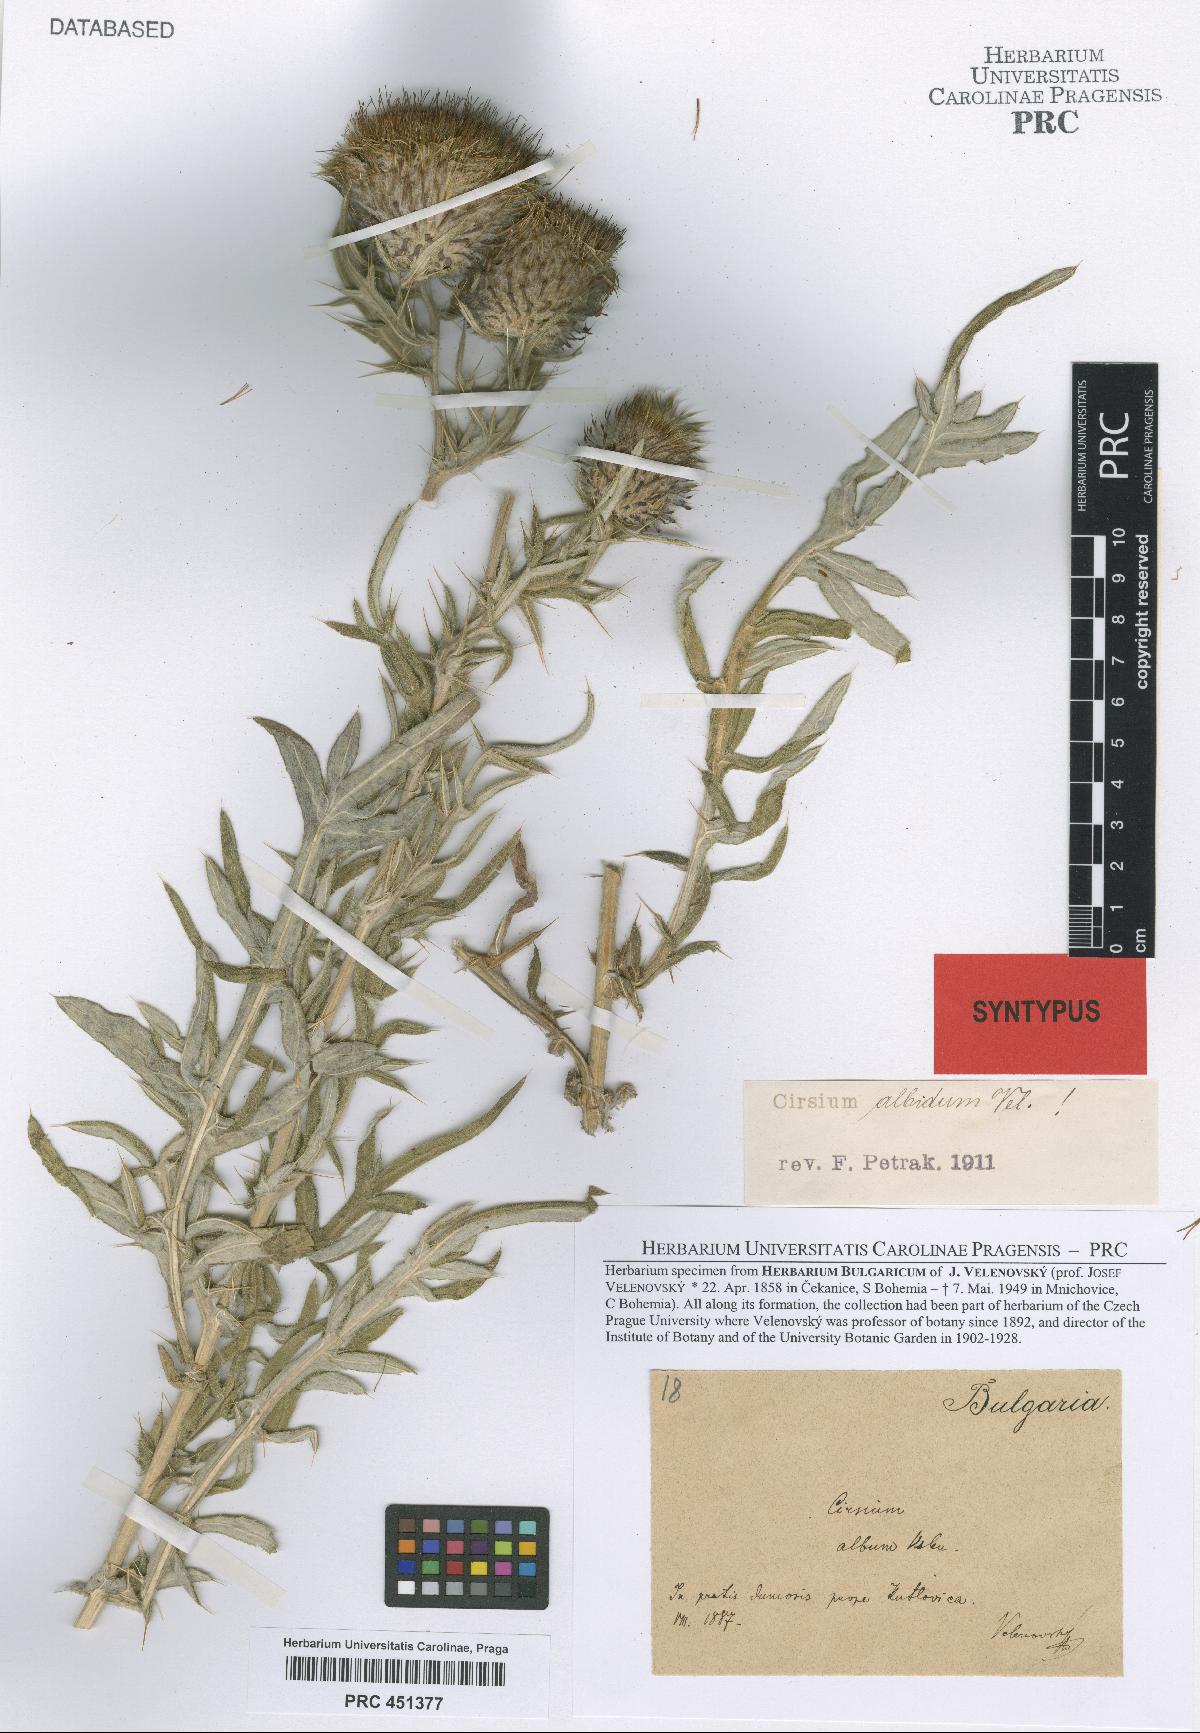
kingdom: Plantae
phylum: Tracheophyta
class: Magnoliopsida
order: Asterales
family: Asteraceae
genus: Lophiolepis
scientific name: Lophiolepis albida
